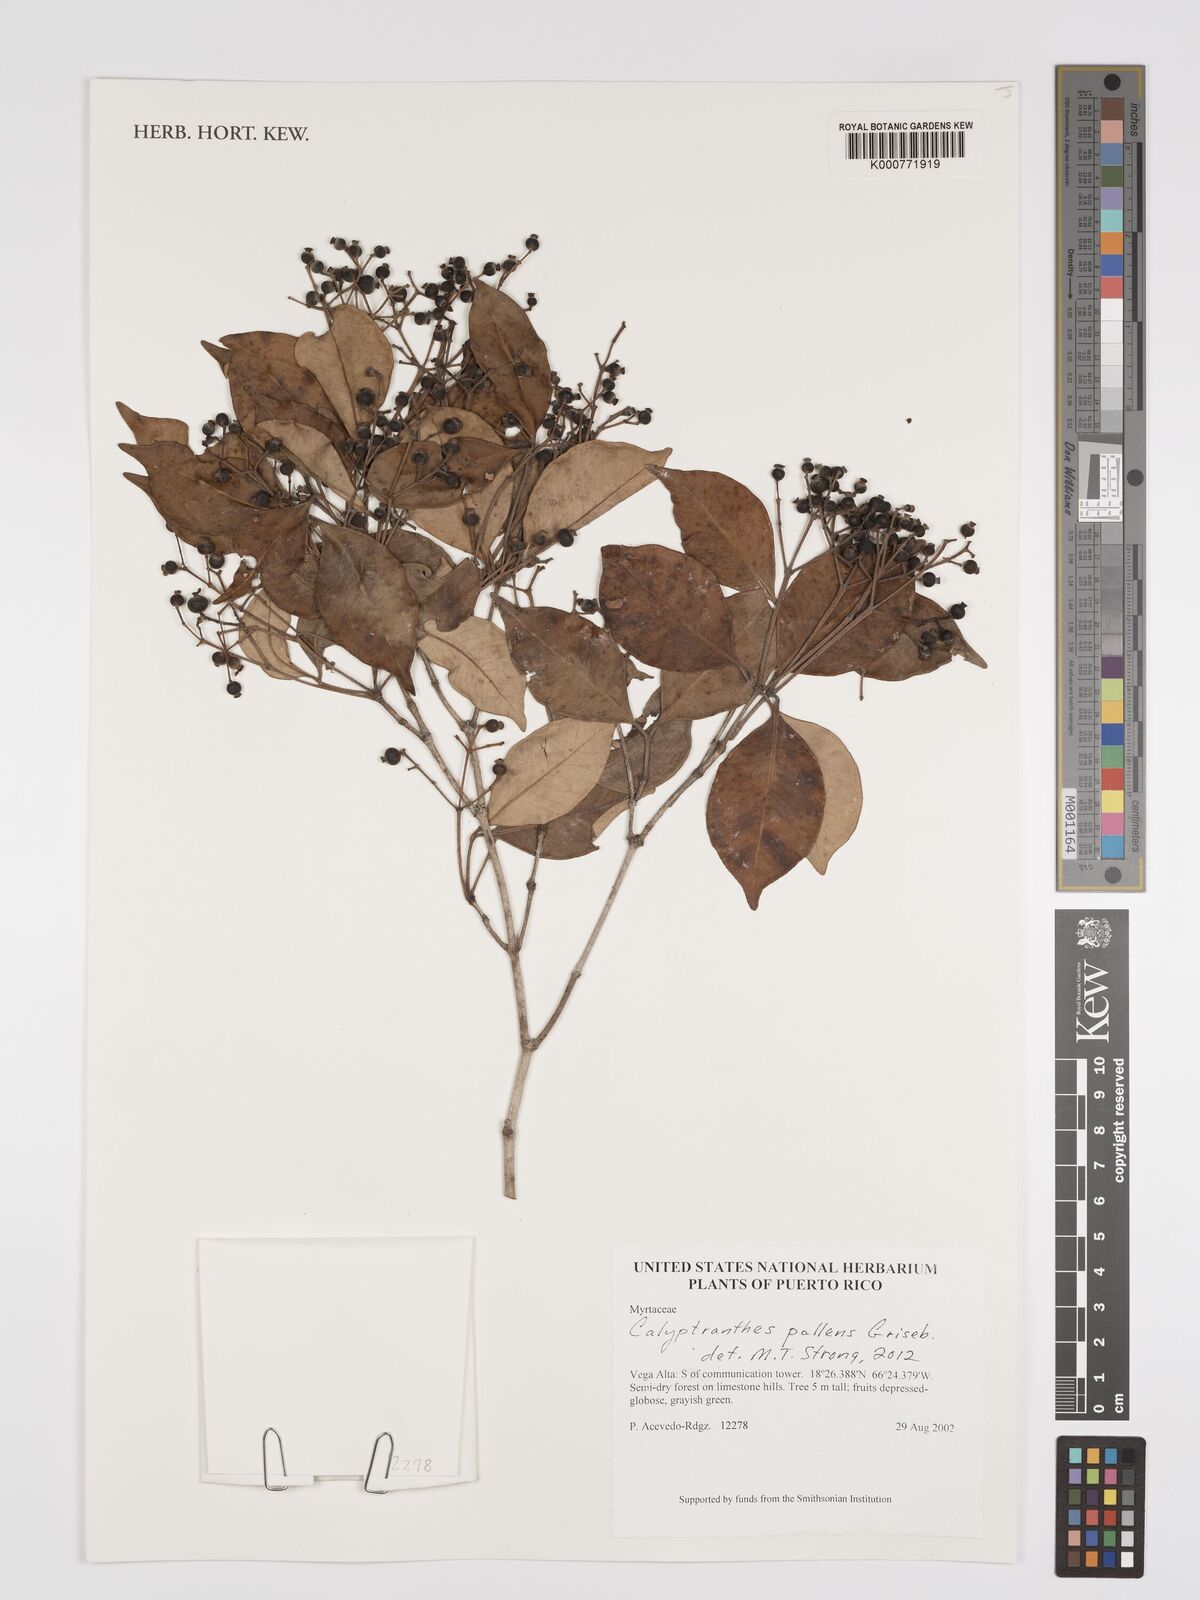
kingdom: Plantae
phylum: Tracheophyta
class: Magnoliopsida
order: Myrtales
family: Myrtaceae
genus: Myrcia
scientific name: Myrcia neopallens
